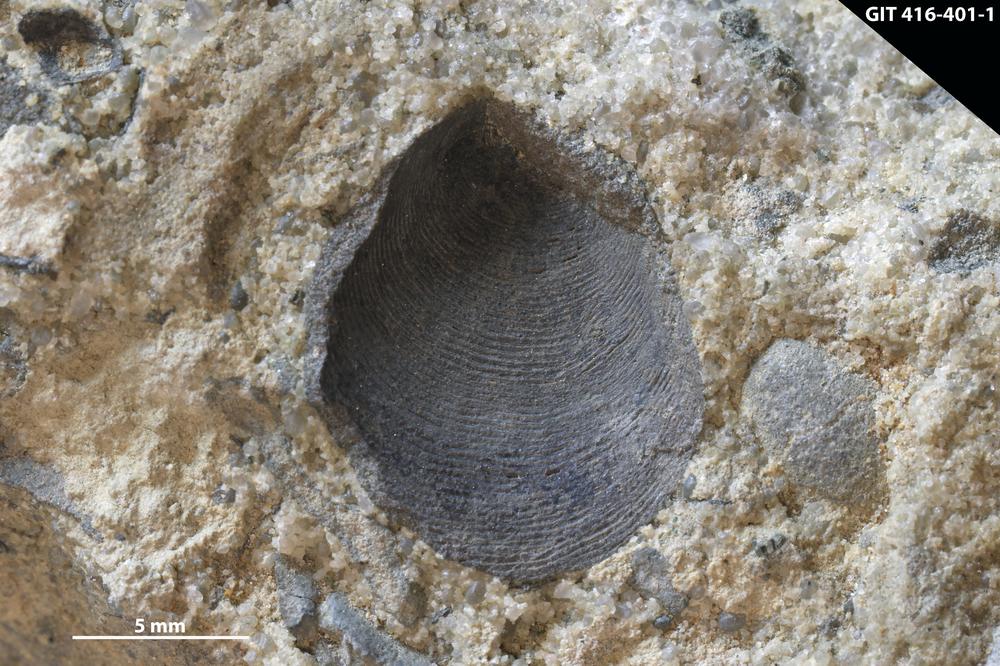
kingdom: Animalia
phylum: Brachiopoda
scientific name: Brachiopoda
